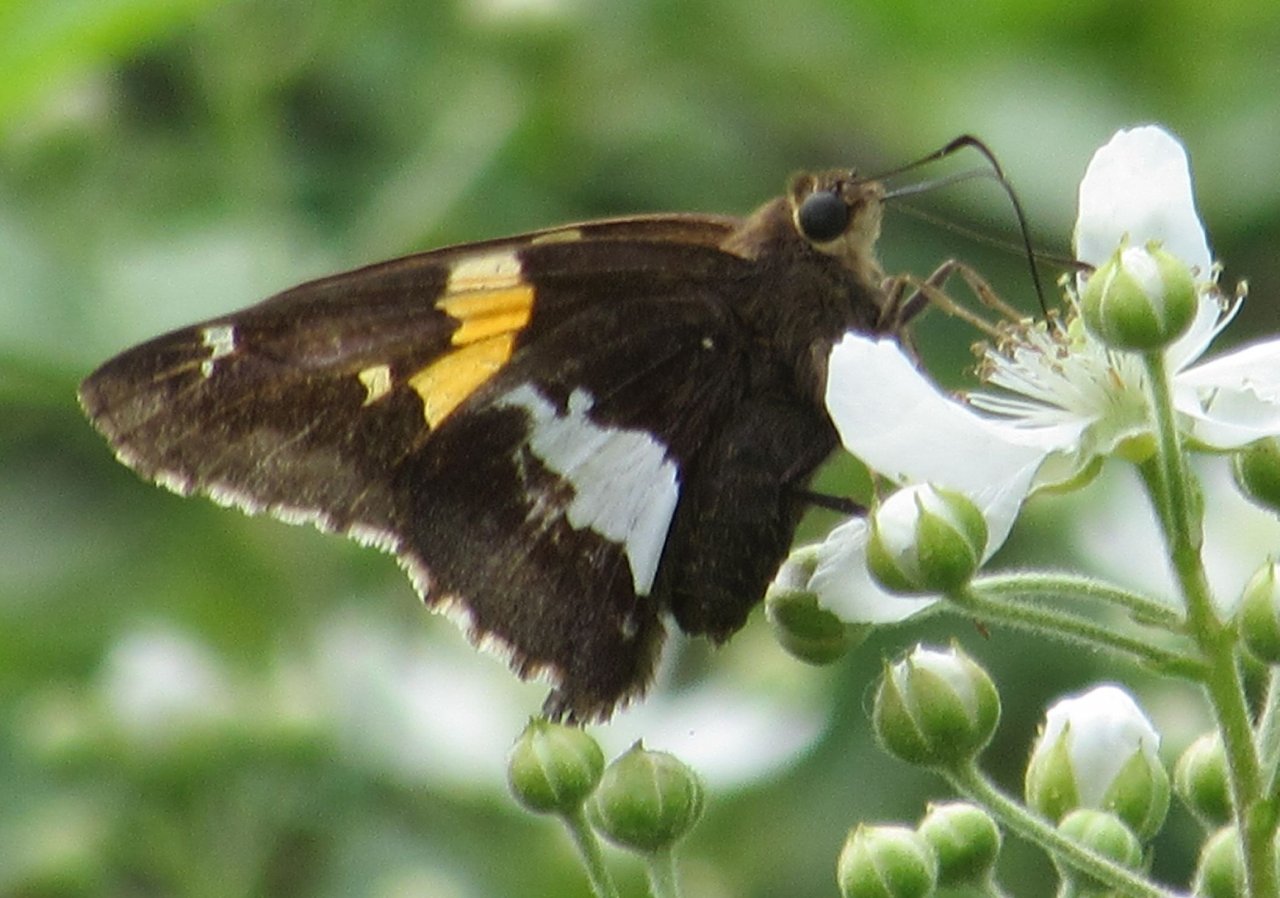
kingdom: Animalia
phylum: Arthropoda
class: Insecta
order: Lepidoptera
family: Hesperiidae
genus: Epargyreus
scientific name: Epargyreus clarus
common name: Silver-spotted Skipper
